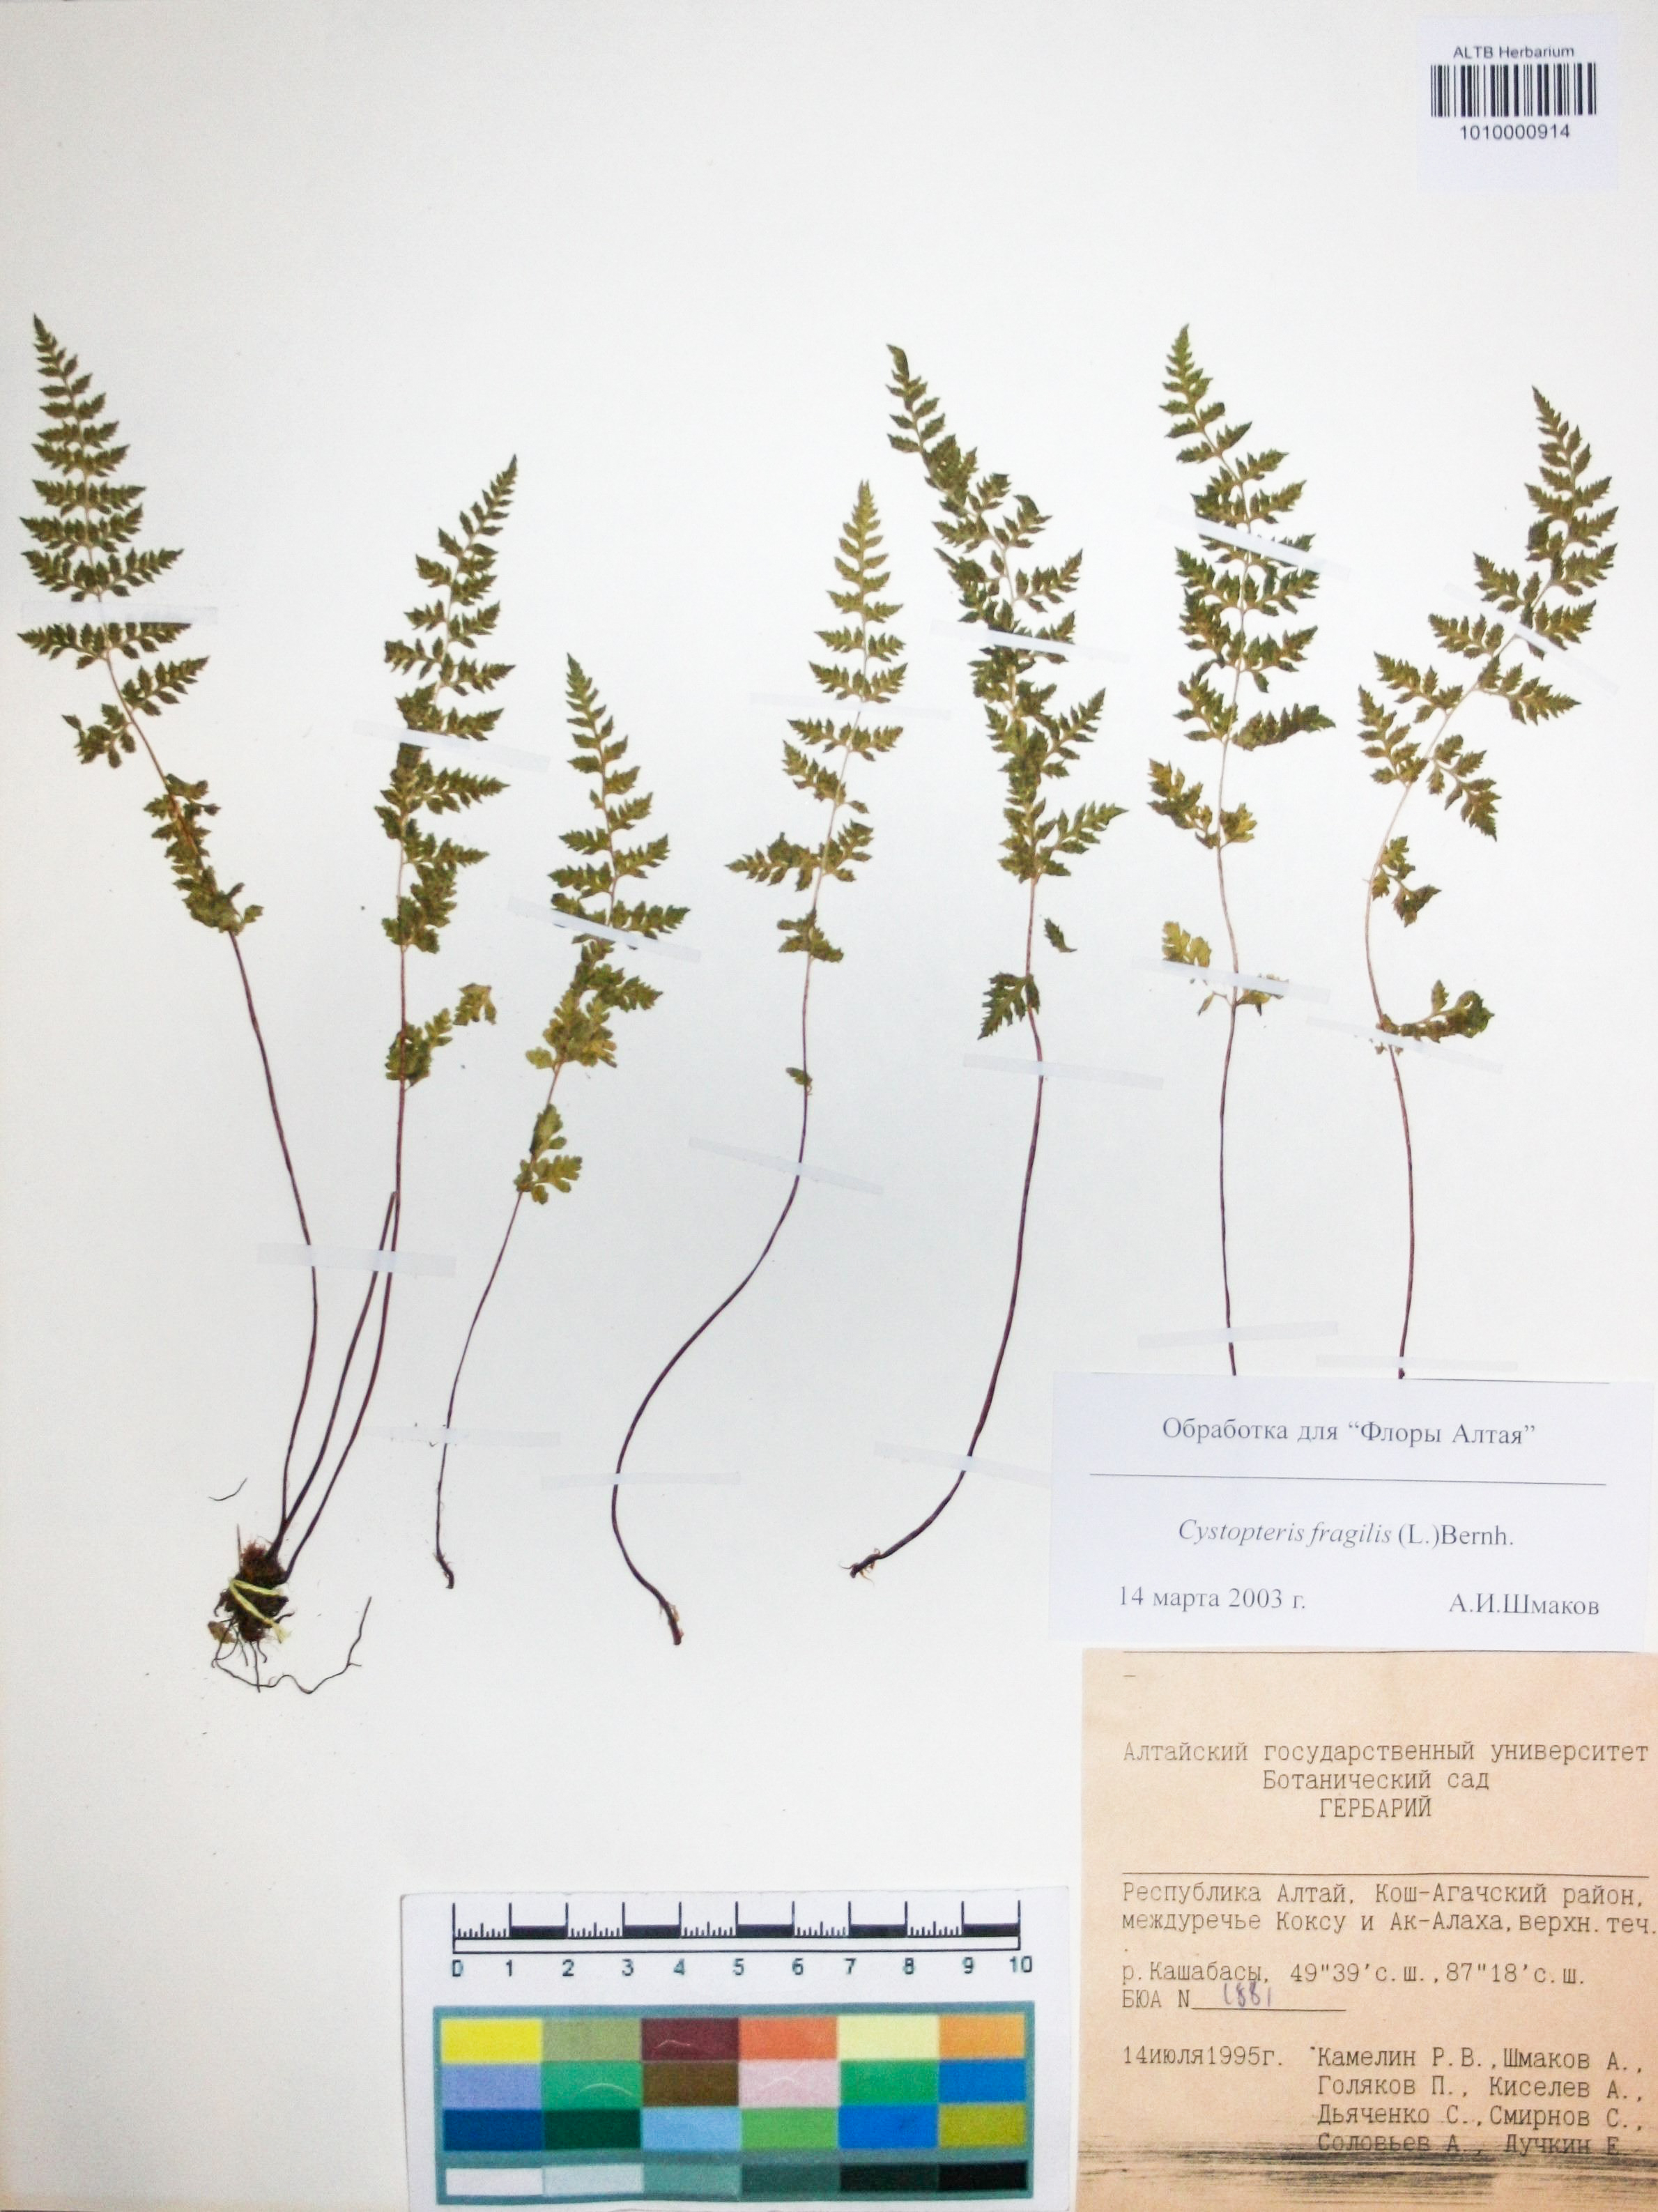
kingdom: Plantae
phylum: Tracheophyta
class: Polypodiopsida
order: Polypodiales
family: Cystopteridaceae
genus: Cystopteris
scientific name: Cystopteris fragilis
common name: Brittle bladder fern
